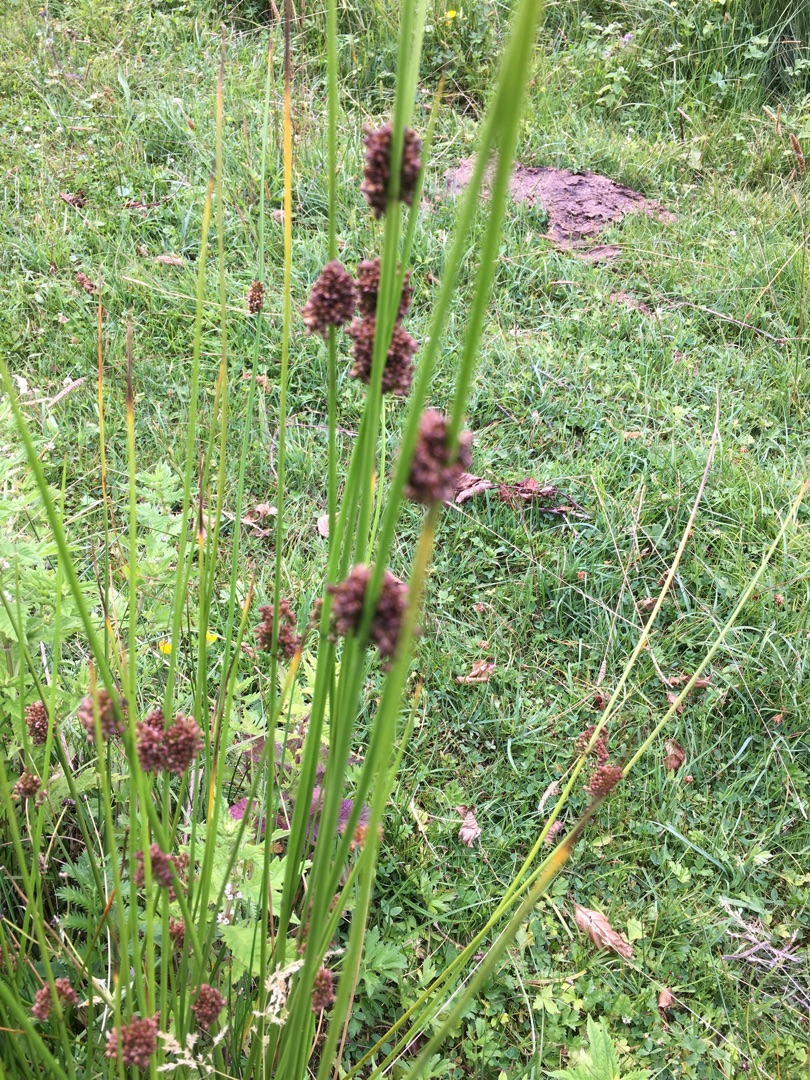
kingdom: Plantae
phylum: Tracheophyta
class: Liliopsida
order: Poales
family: Juncaceae
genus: Juncus
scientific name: Juncus conglomeratus
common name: Knop-siv
